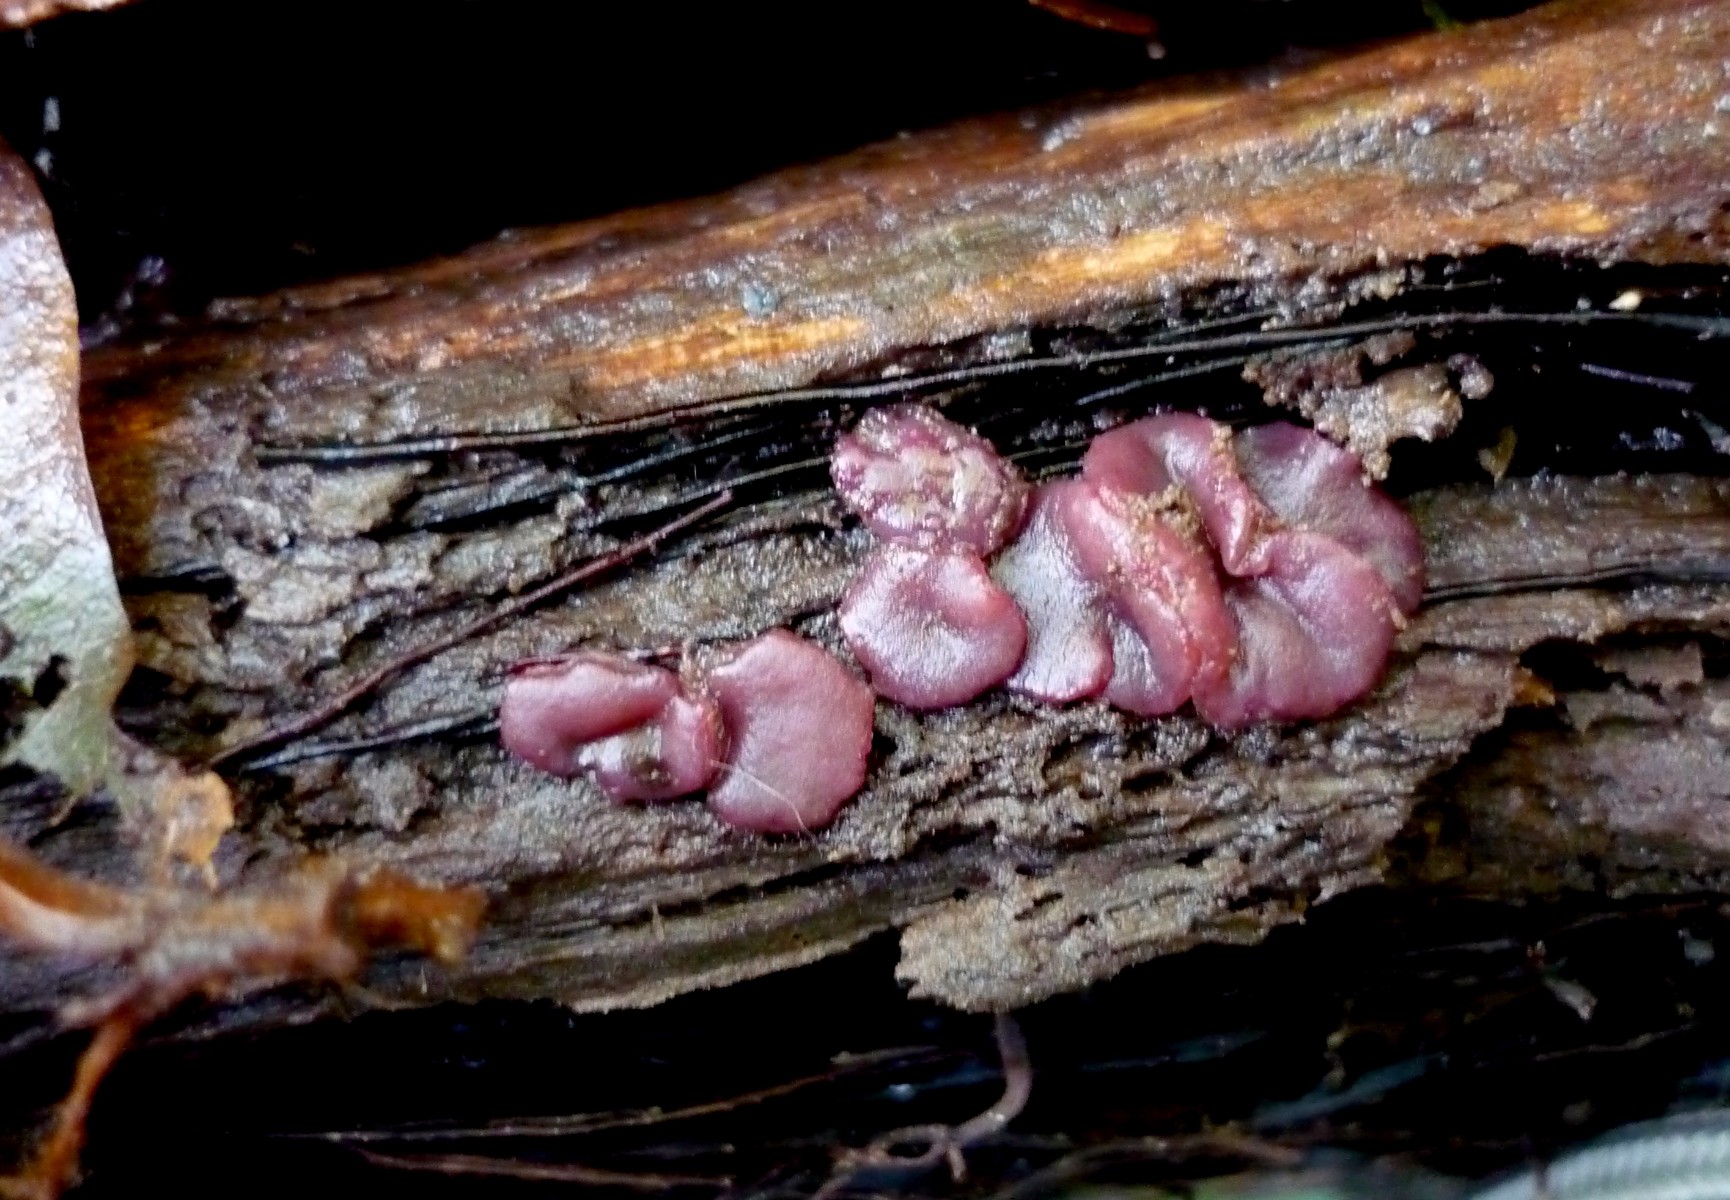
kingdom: Fungi
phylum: Ascomycota
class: Leotiomycetes
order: Helotiales
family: Gelatinodiscaceae
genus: Ascocoryne
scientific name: Ascocoryne cylichnium
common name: stor sejskive
